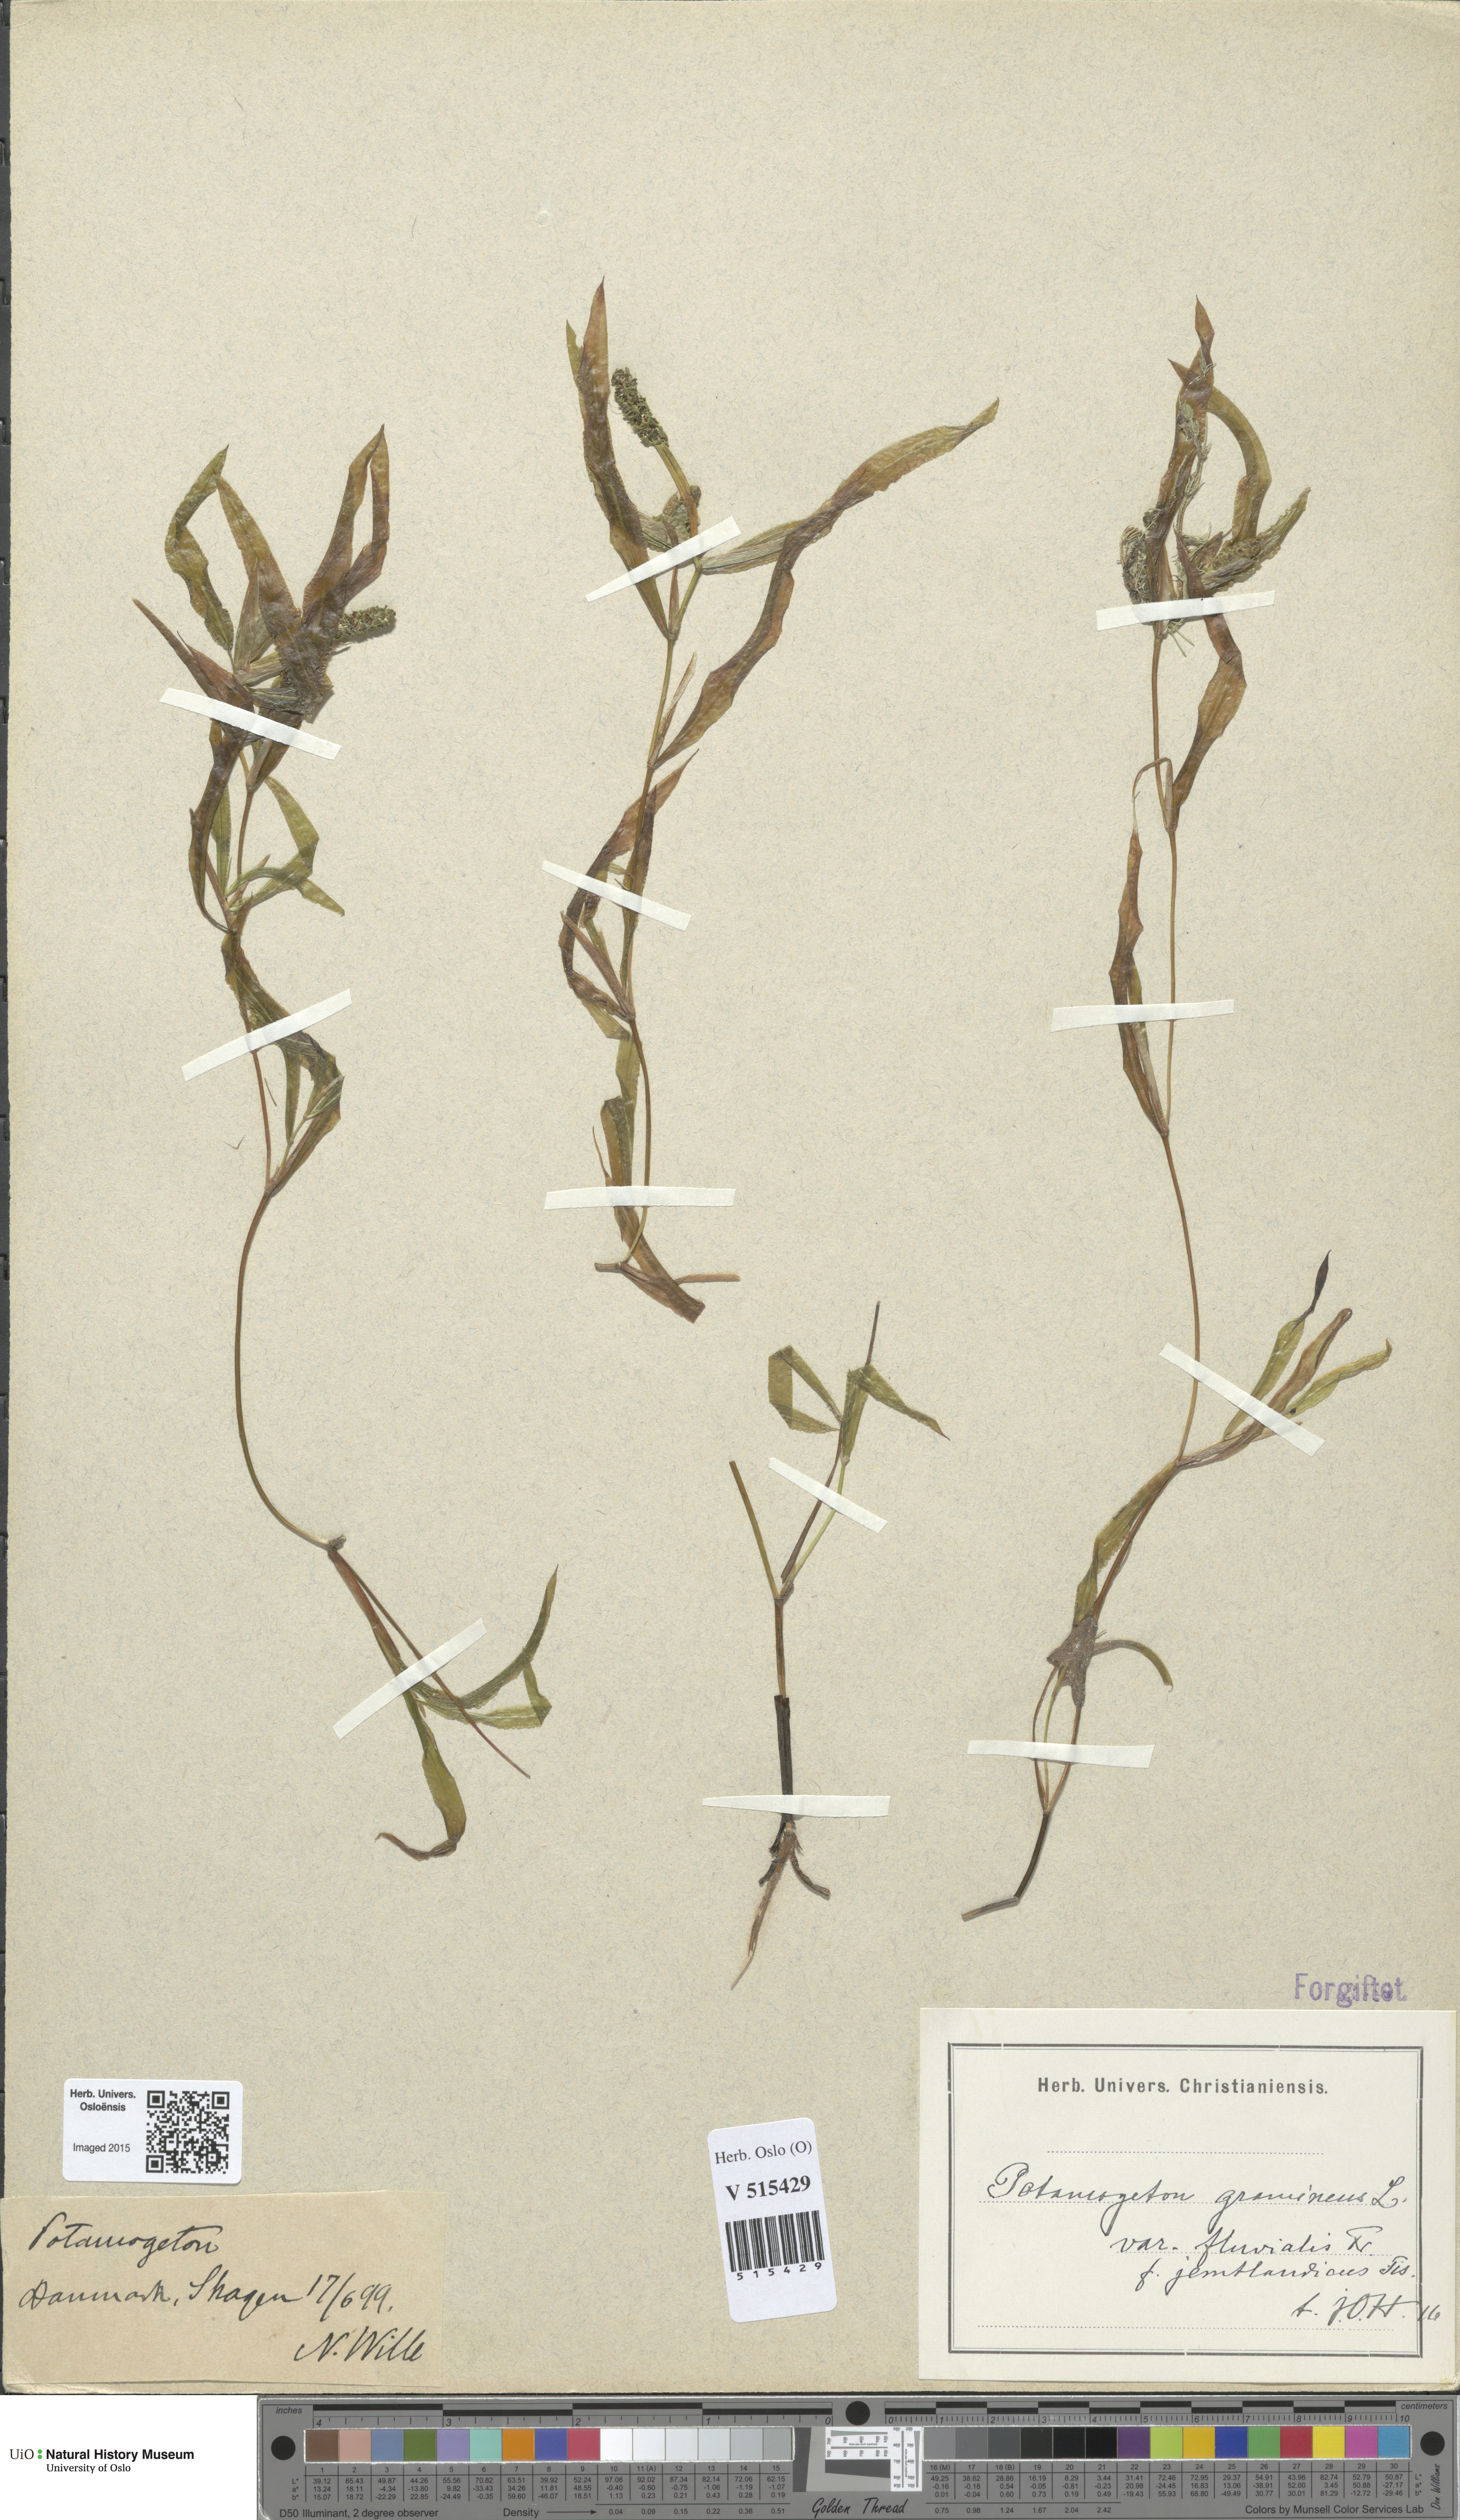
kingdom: Plantae
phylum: Tracheophyta
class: Liliopsida
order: Alismatales
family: Potamogetonaceae
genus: Potamogeton
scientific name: Potamogeton gramineus
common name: Various-leaved pondweed
